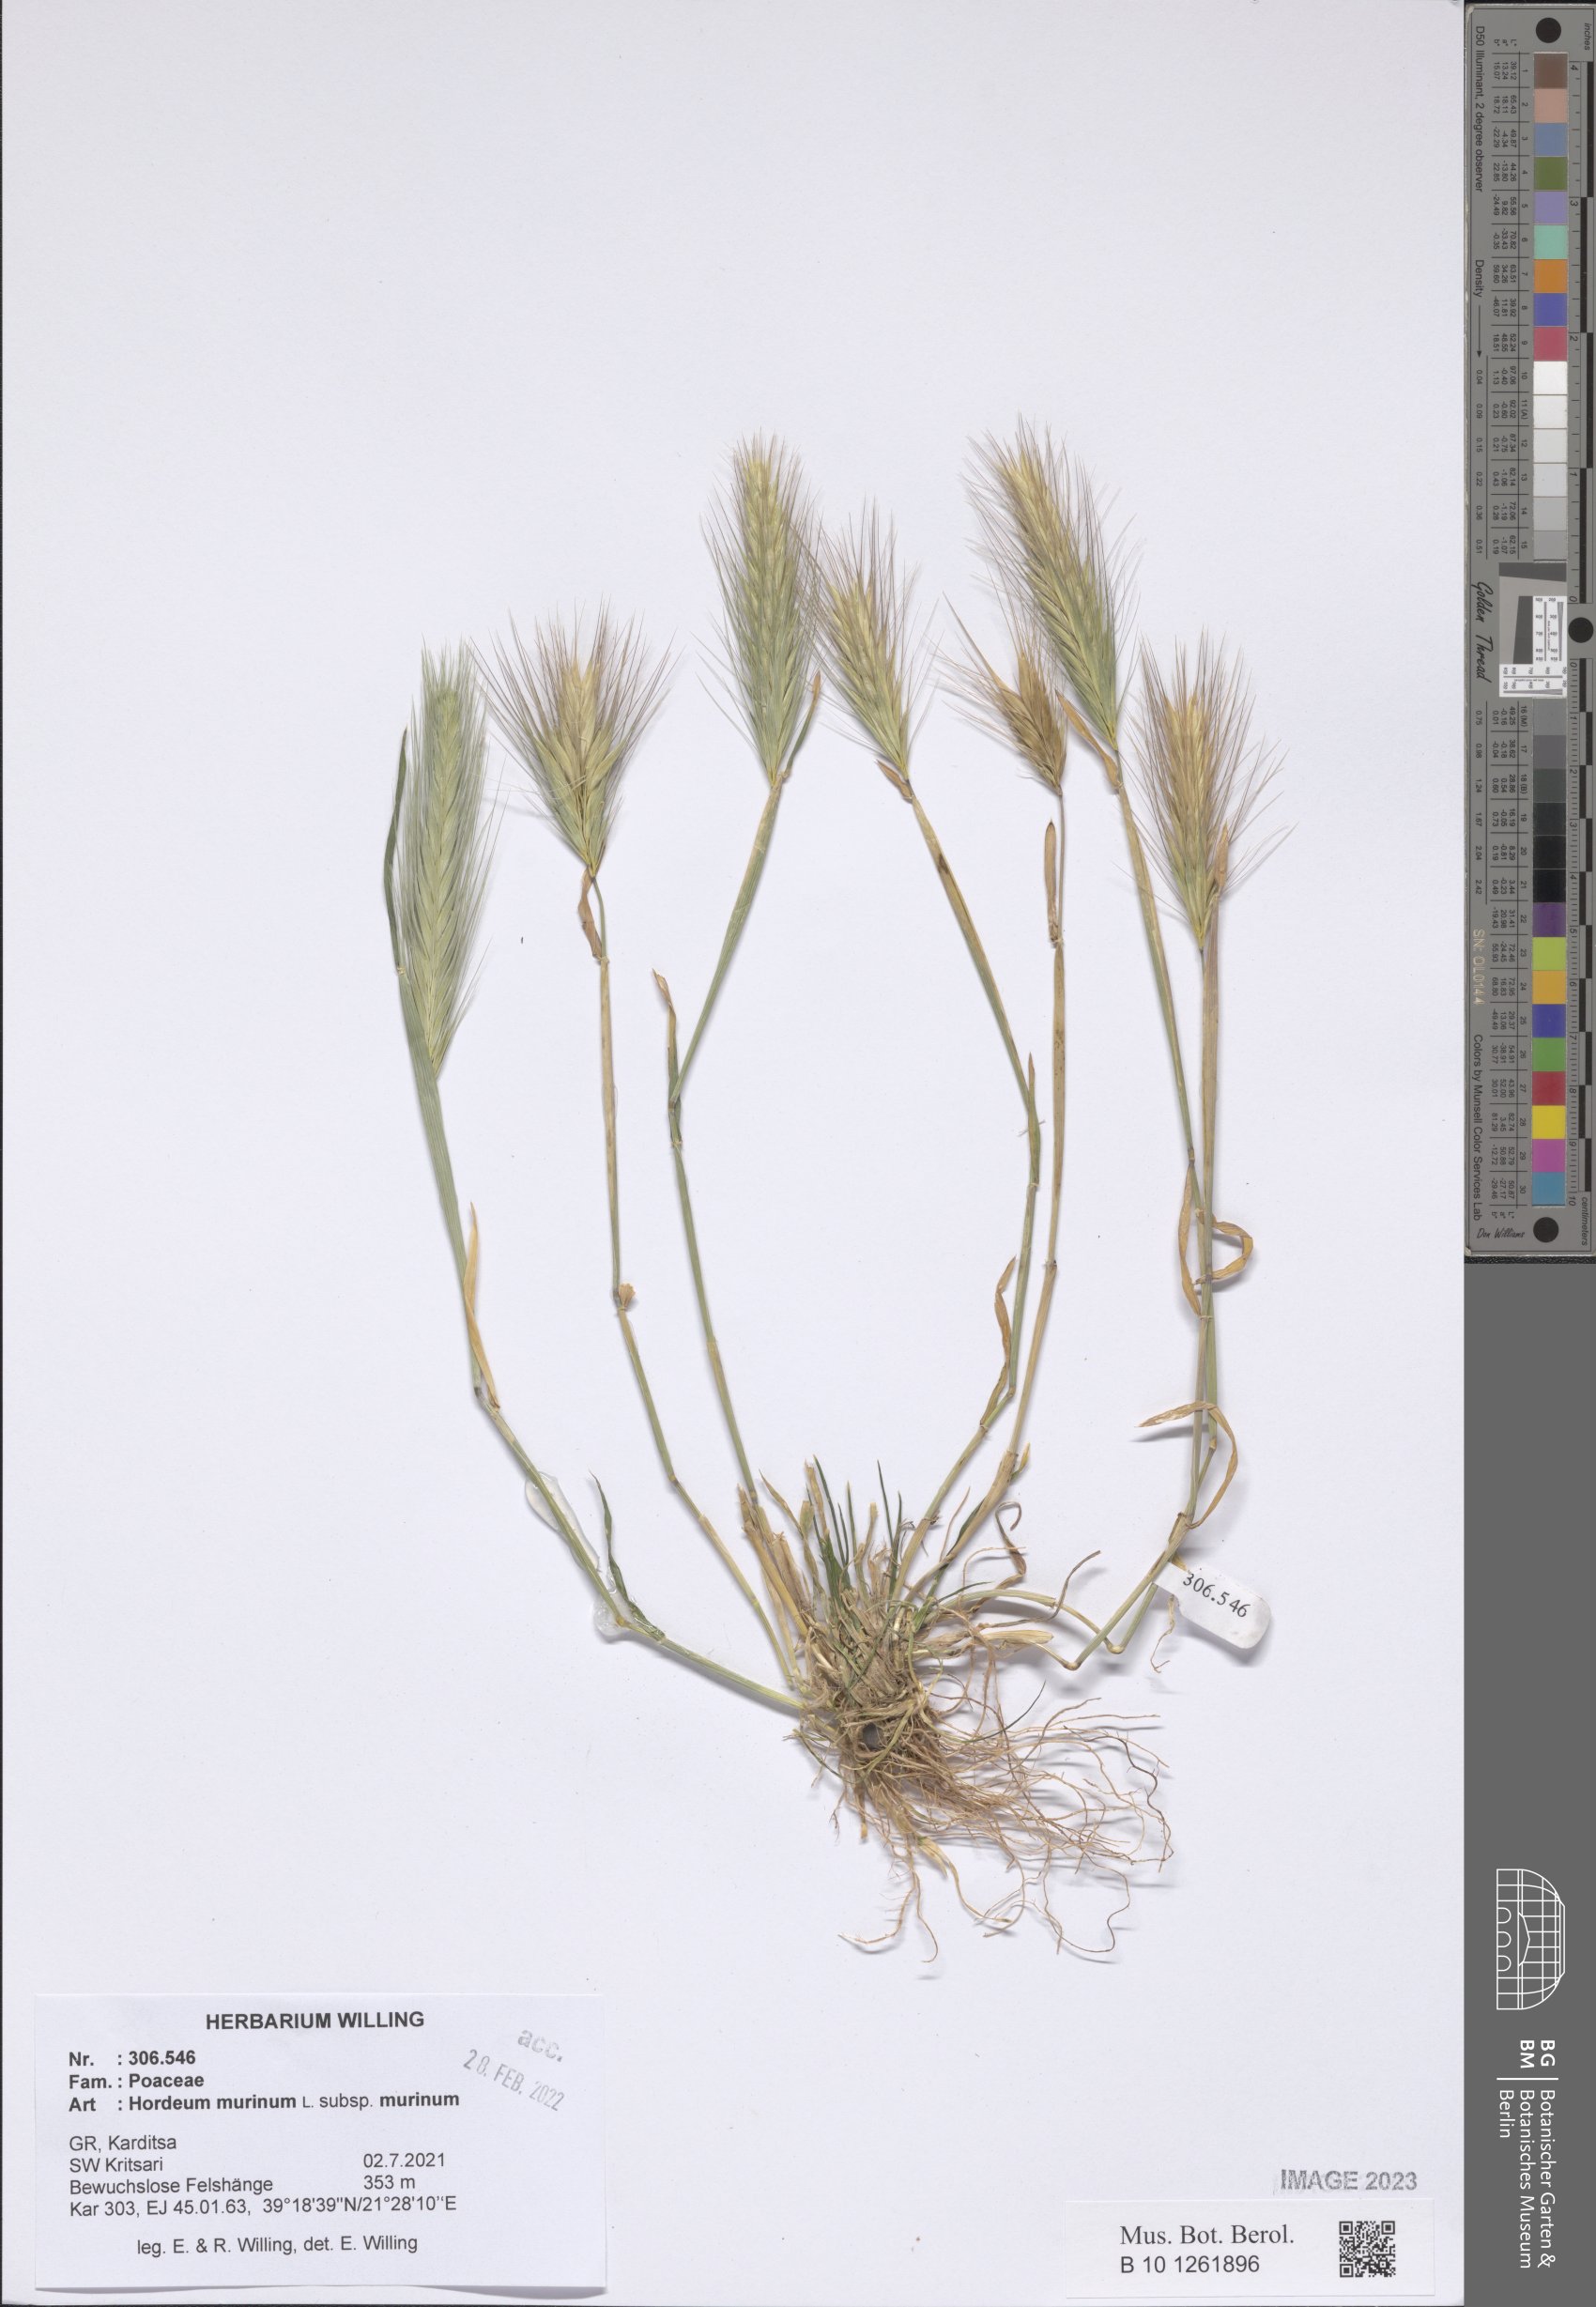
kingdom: Plantae
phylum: Tracheophyta
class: Liliopsida
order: Poales
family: Poaceae
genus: Hordeum
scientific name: Hordeum murinum
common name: Wall barley
